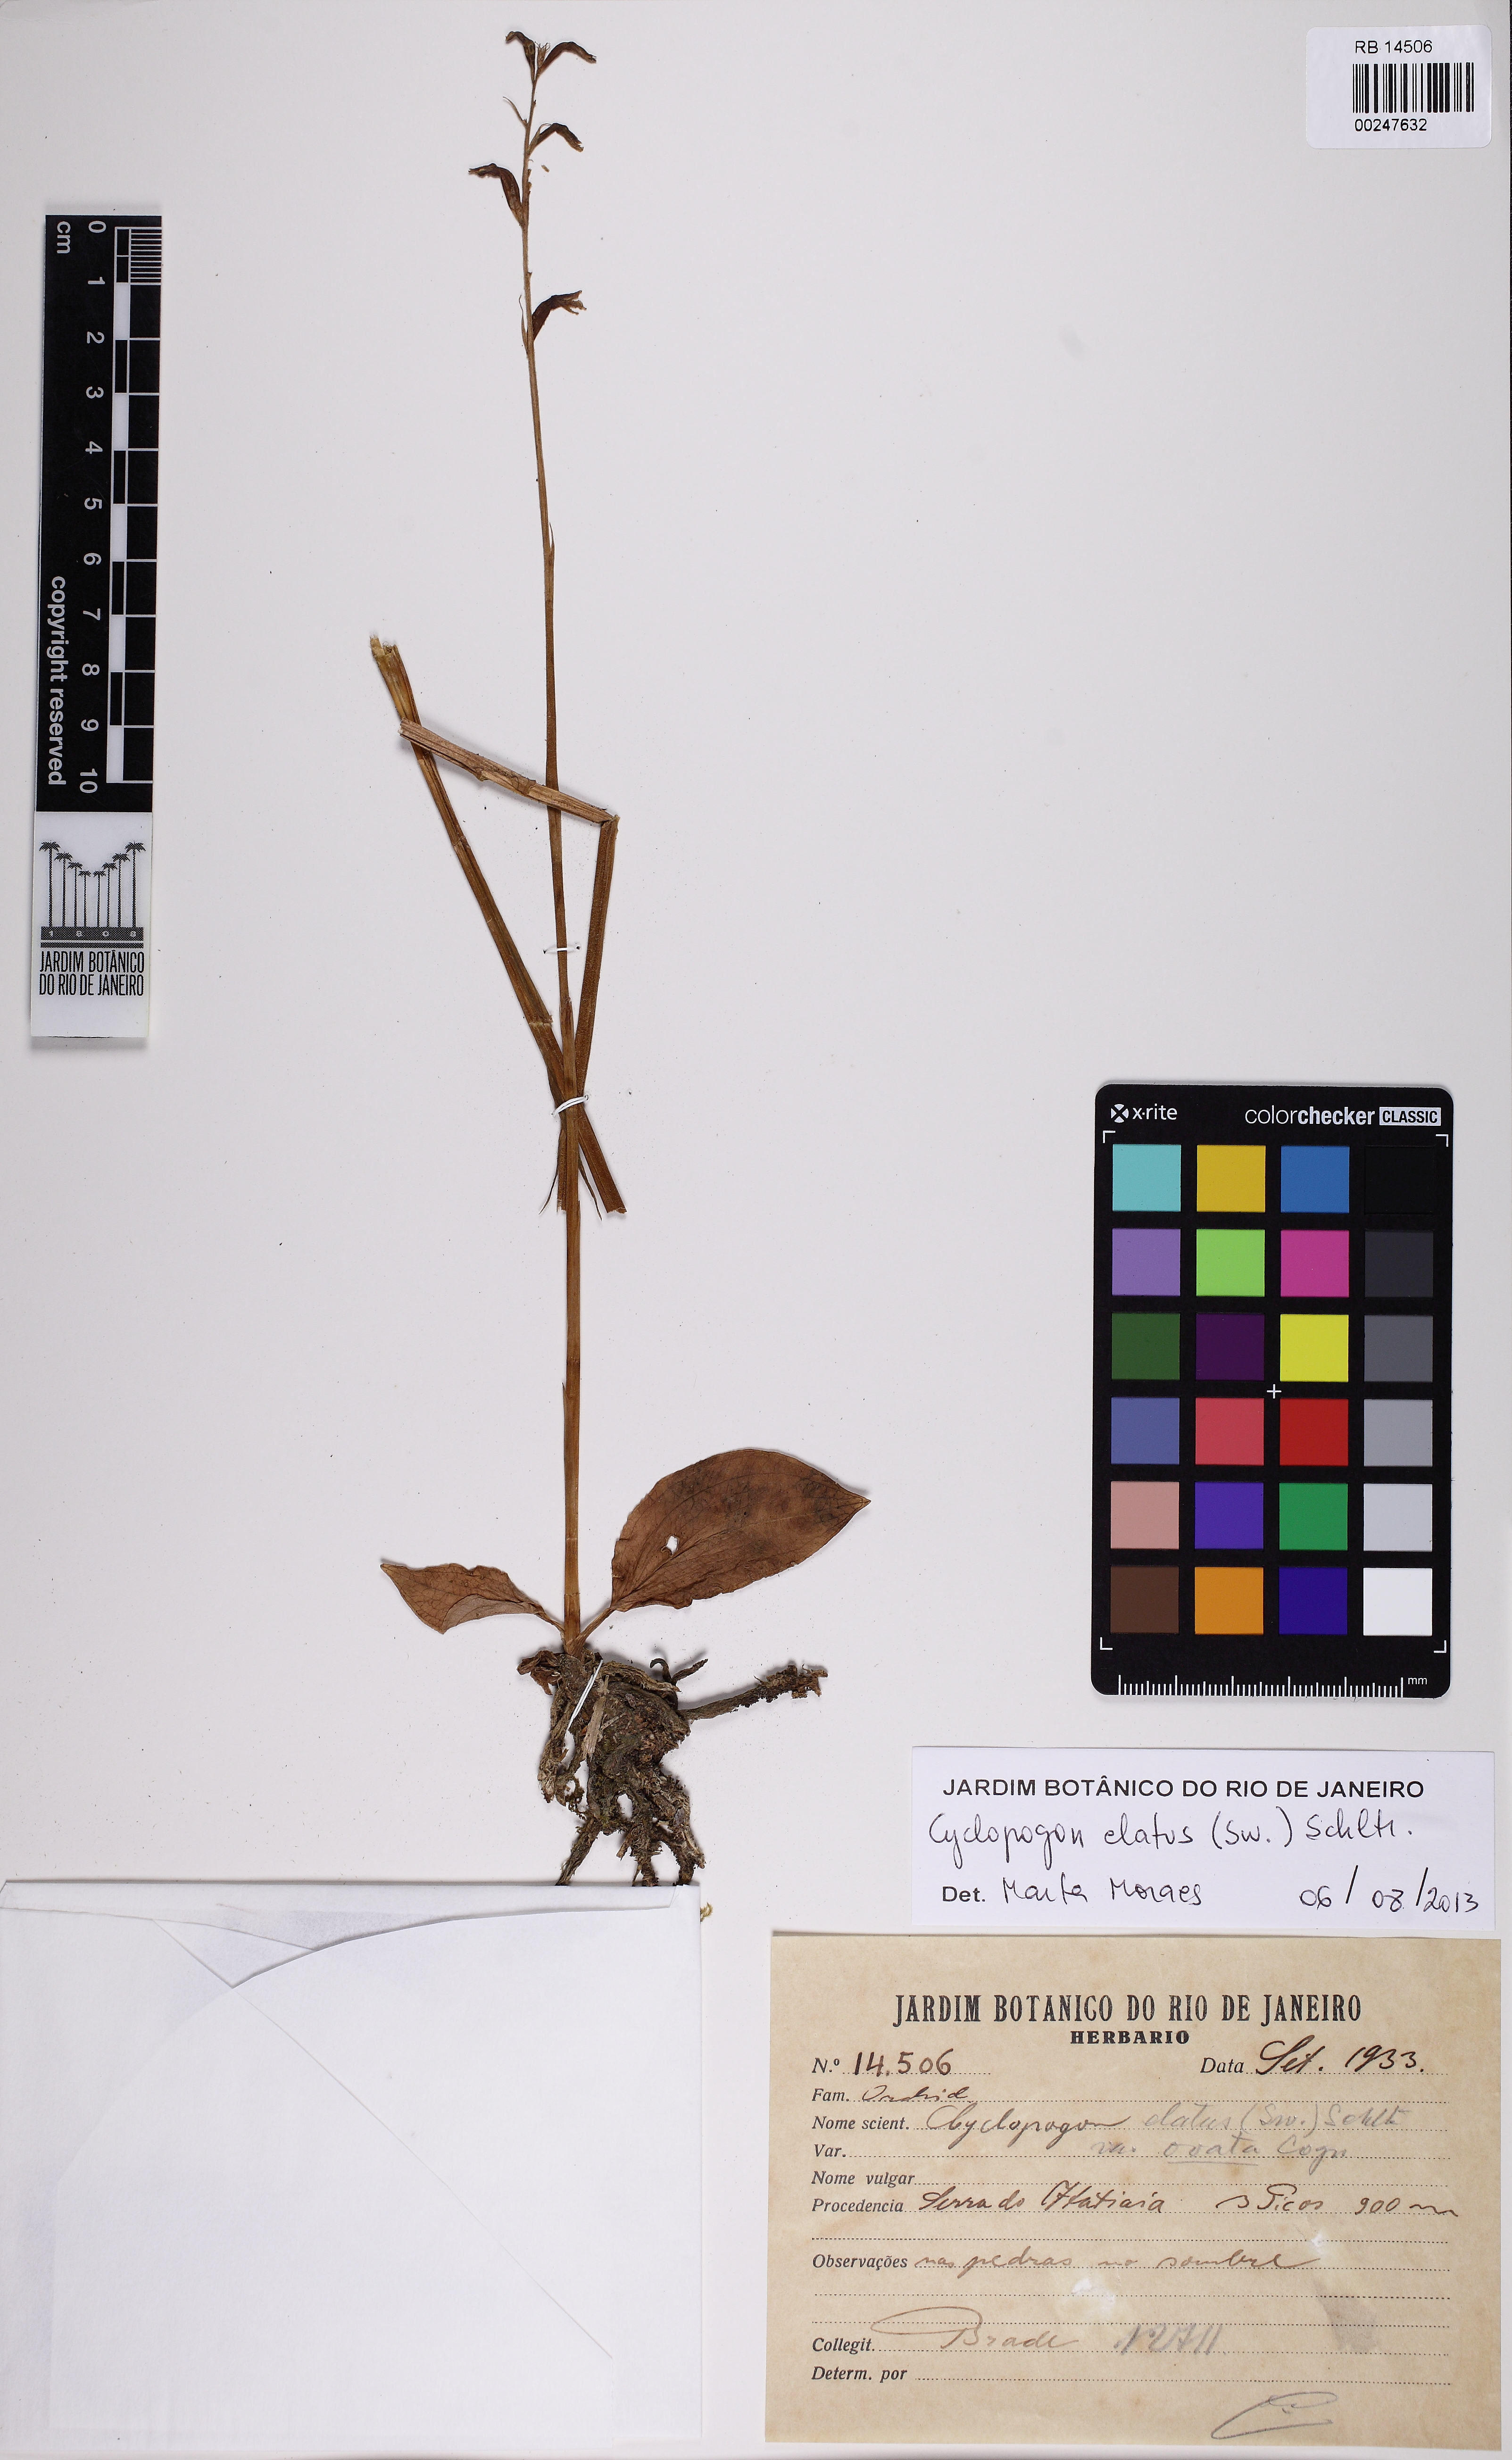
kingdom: Plantae
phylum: Tracheophyta
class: Liliopsida
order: Asparagales
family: Orchidaceae
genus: Cyclopogon
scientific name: Cyclopogon elatus
